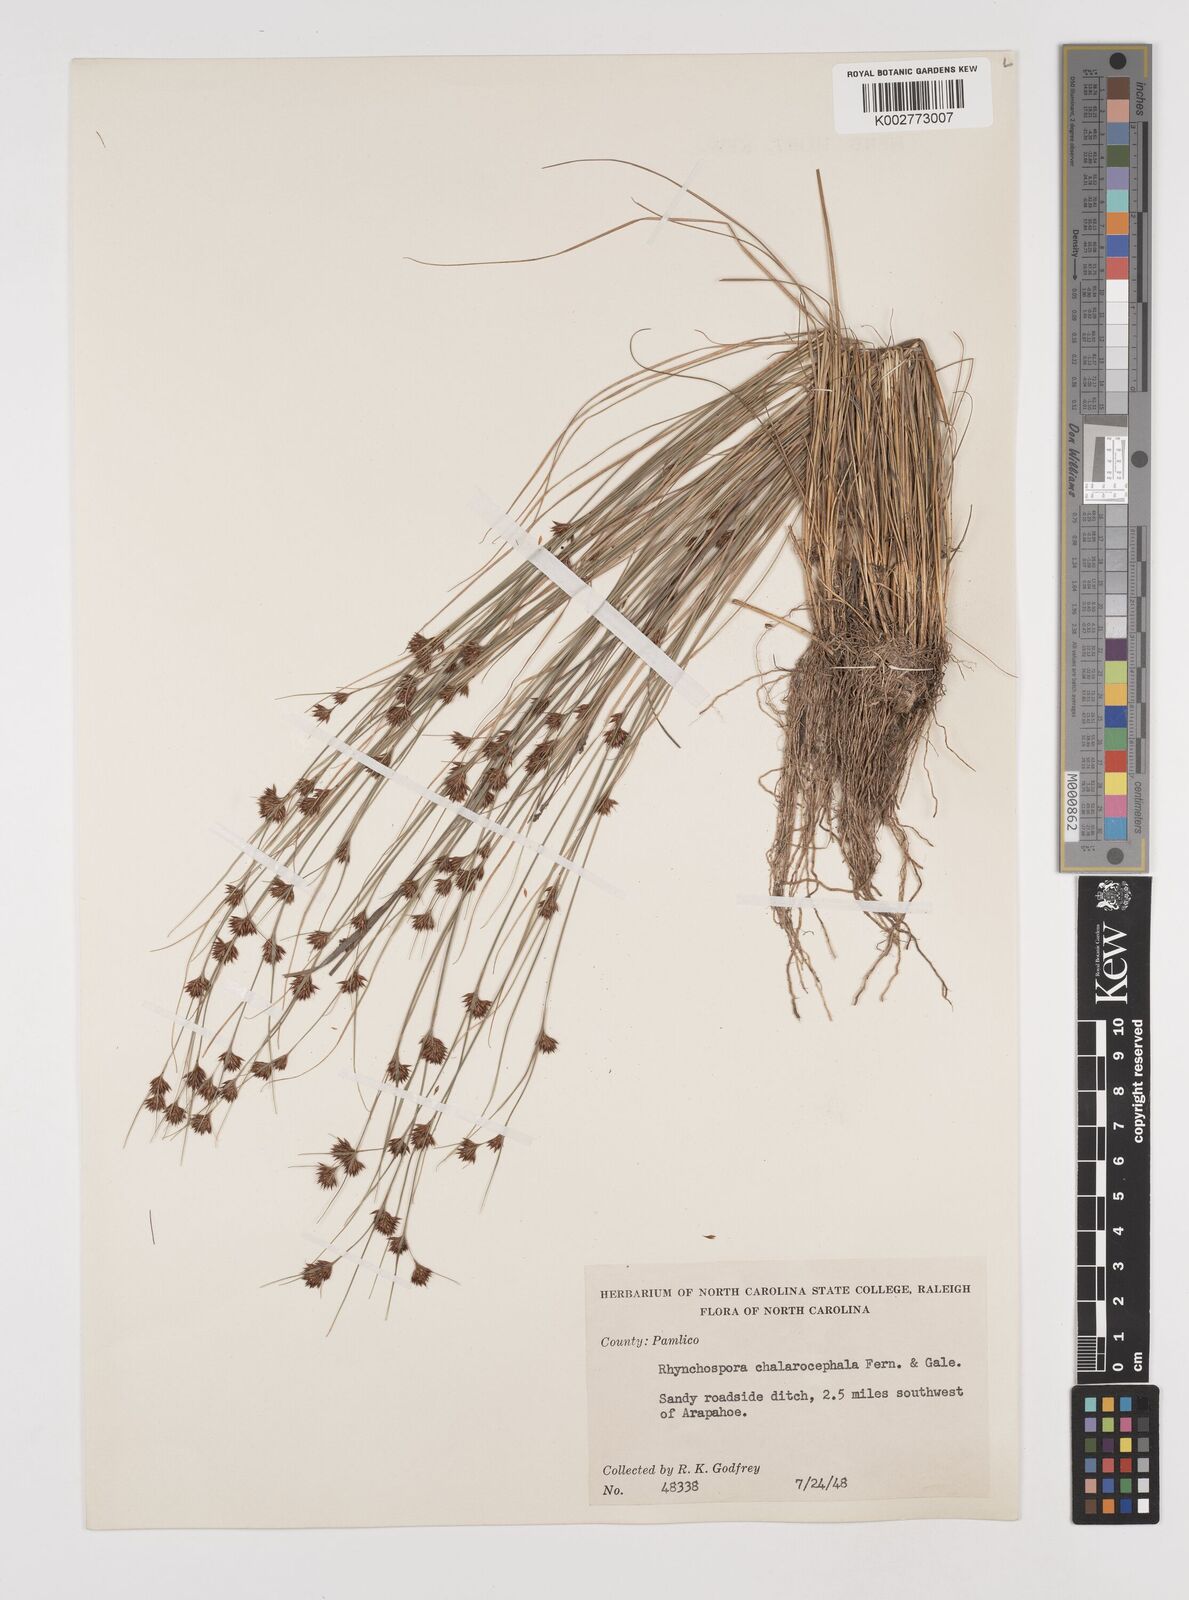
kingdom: Plantae
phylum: Tracheophyta
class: Liliopsida
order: Poales
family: Cyperaceae
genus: Rhynchospora
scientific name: Rhynchospora chalarocephala
